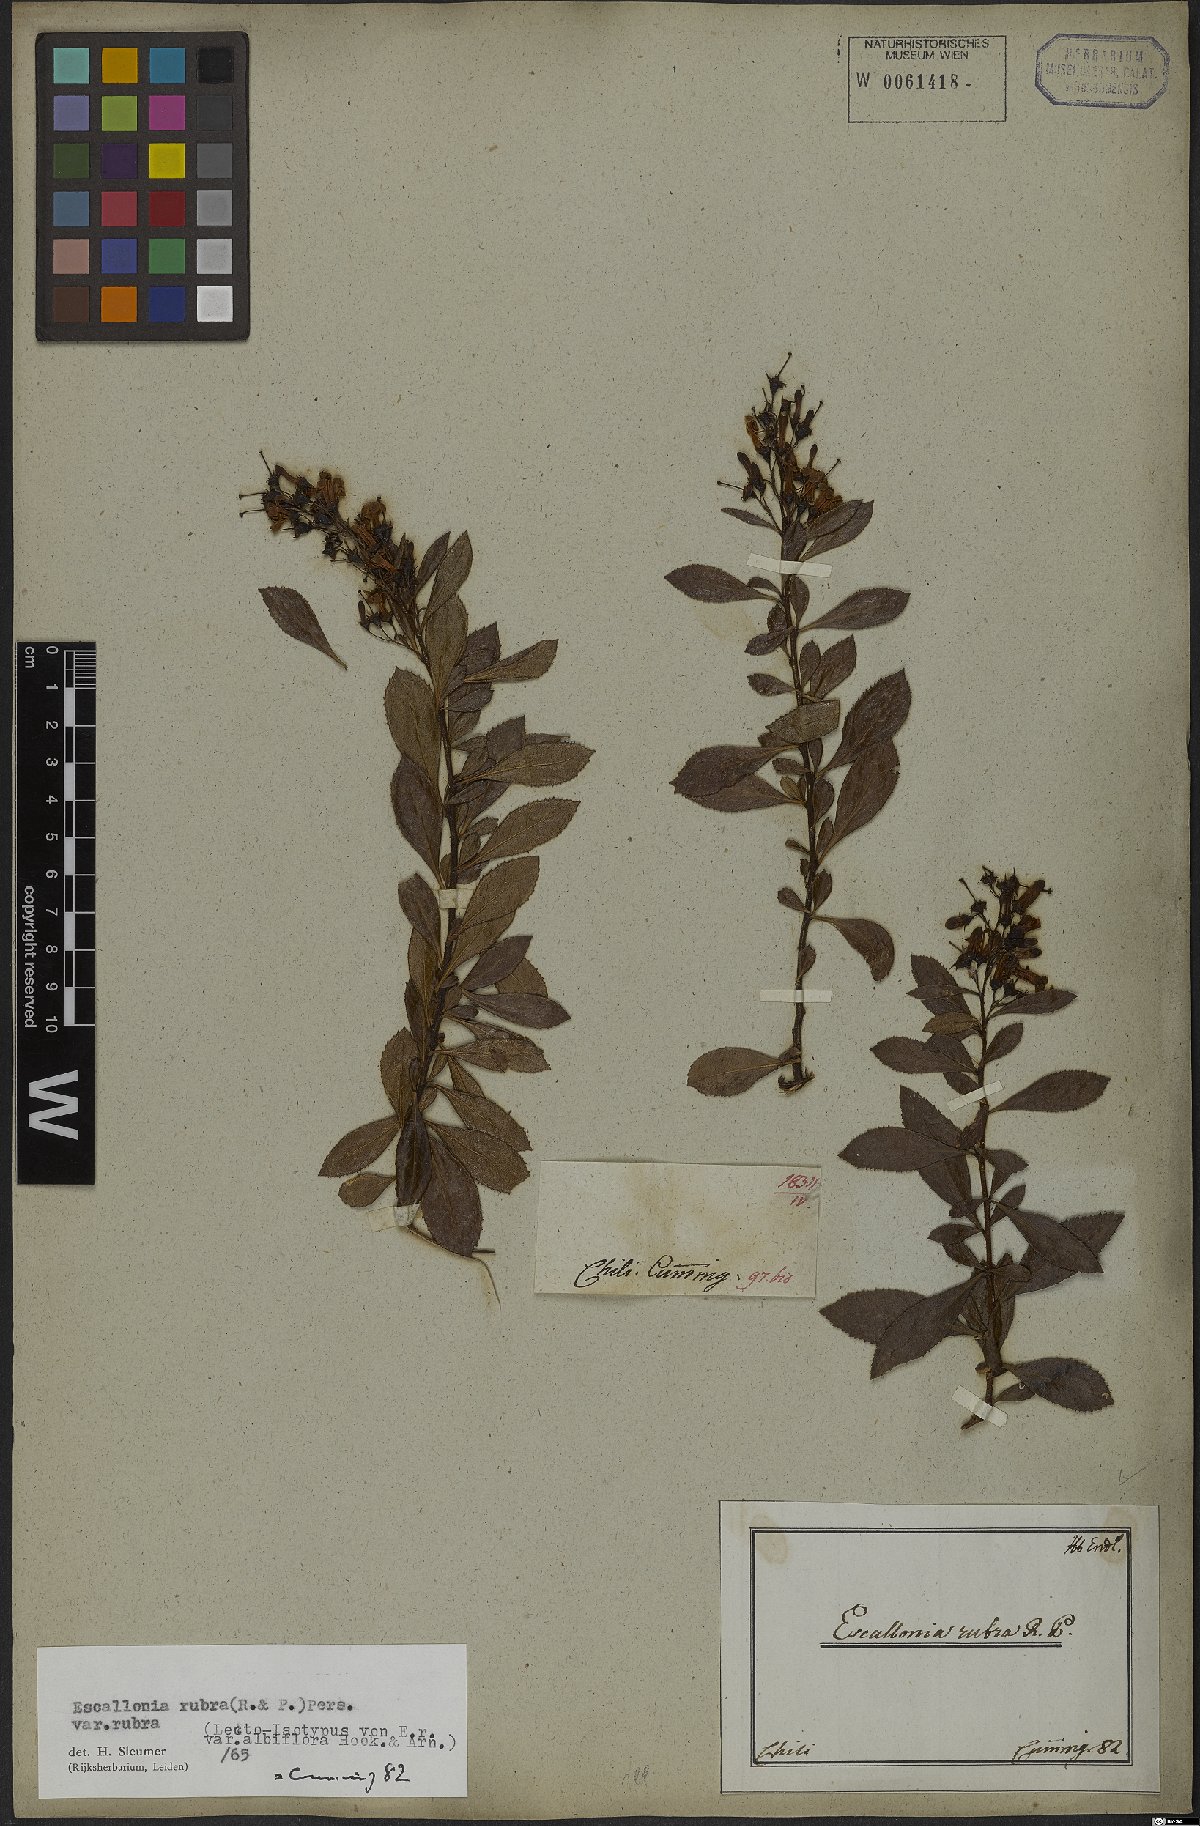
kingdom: Plantae
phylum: Tracheophyta
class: Magnoliopsida
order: Escalloniales
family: Escalloniaceae
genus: Escallonia
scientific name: Escallonia rubra
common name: Redclaws
